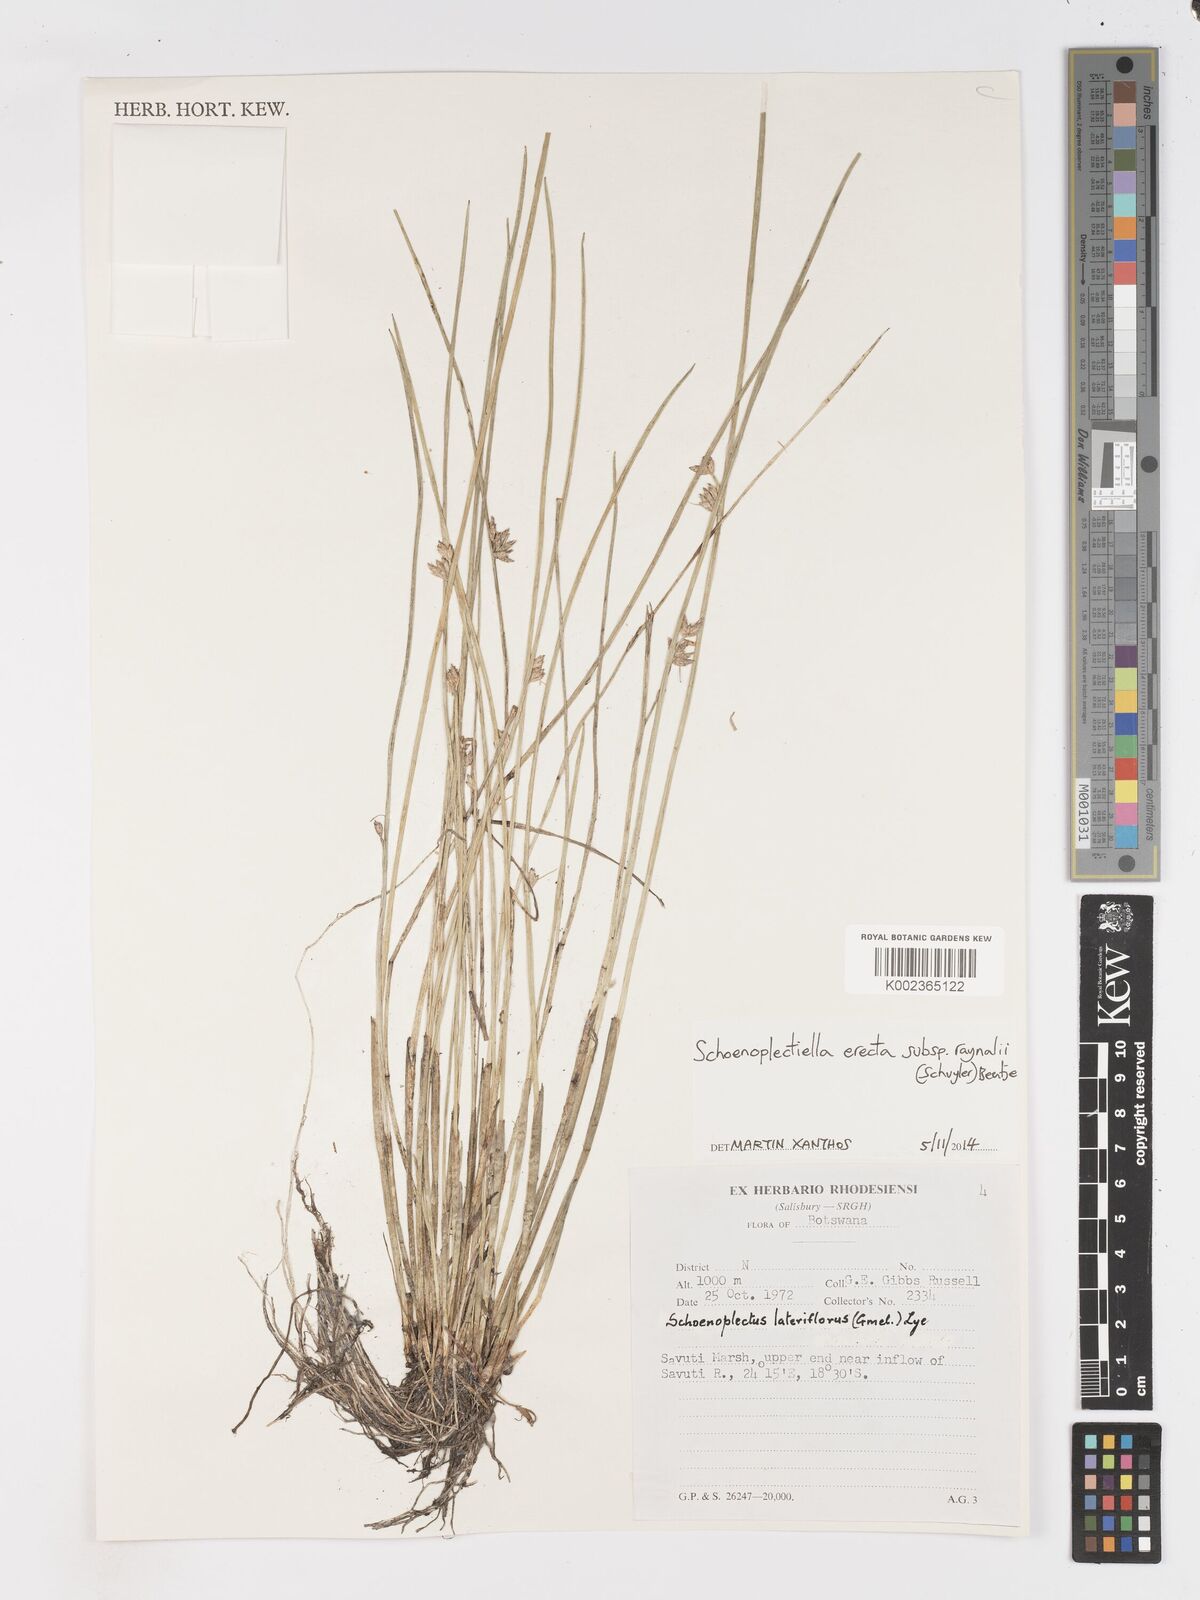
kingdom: Plantae
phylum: Tracheophyta
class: Liliopsida
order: Poales
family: Cyperaceae
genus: Schoenoplectiella
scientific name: Schoenoplectiella erecta
